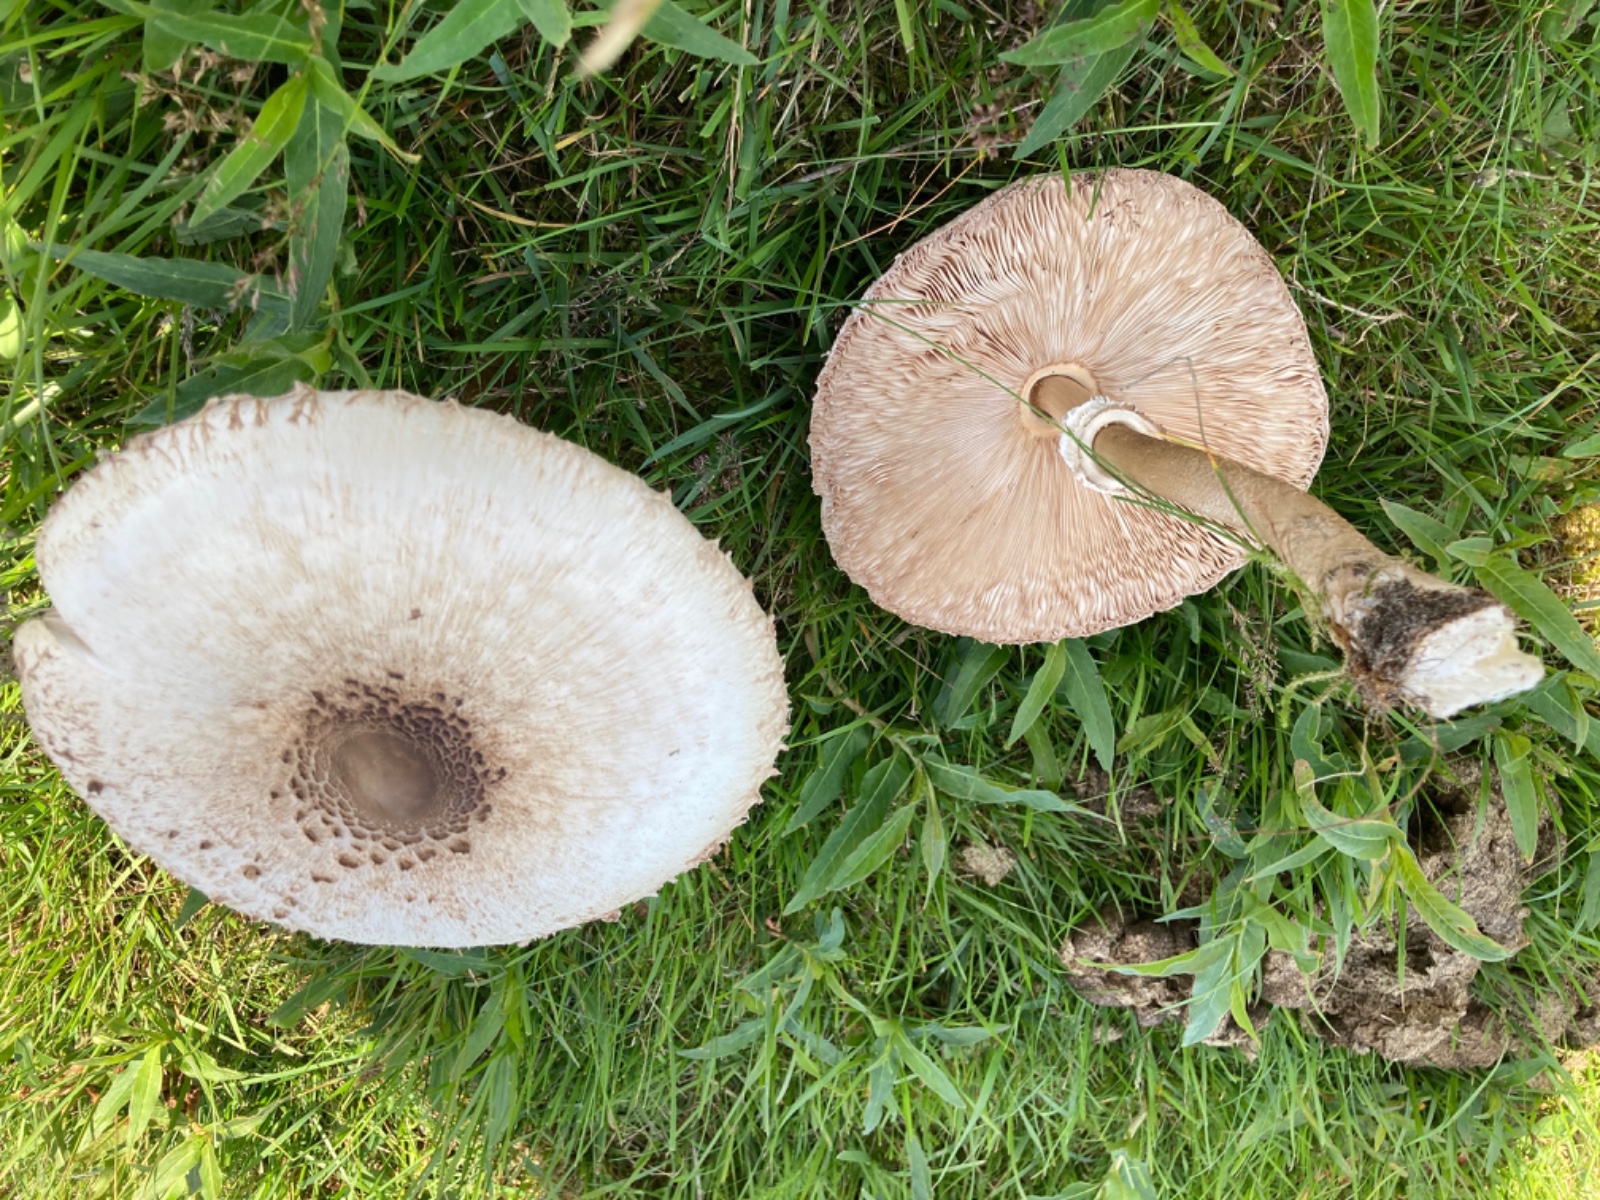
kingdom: Fungi
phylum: Basidiomycota
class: Agaricomycetes
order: Agaricales
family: Agaricaceae
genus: Macrolepiota
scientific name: Macrolepiota
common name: kæmpeparasolhat
